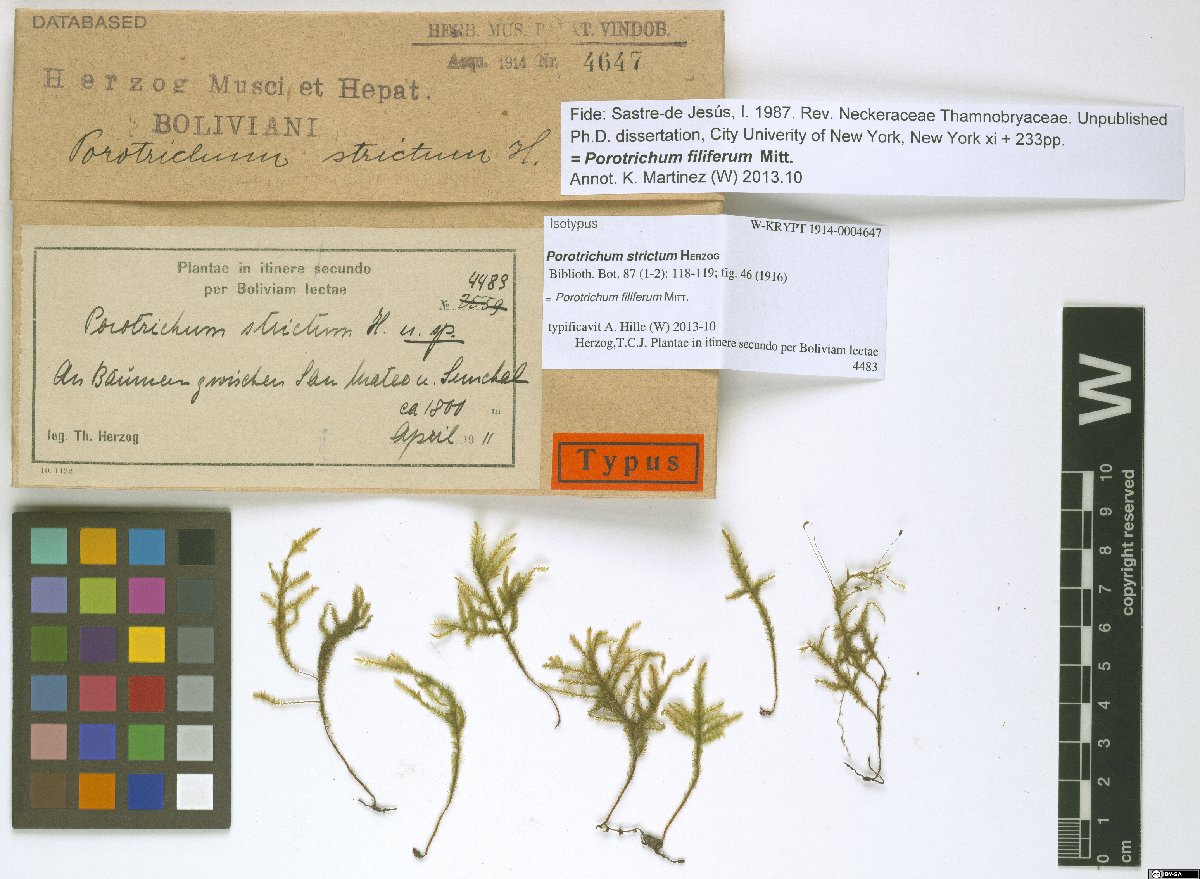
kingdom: Plantae
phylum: Bryophyta
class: Bryopsida
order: Hypnales
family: Neckeraceae
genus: Porotrichum
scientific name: Porotrichum filiferum
